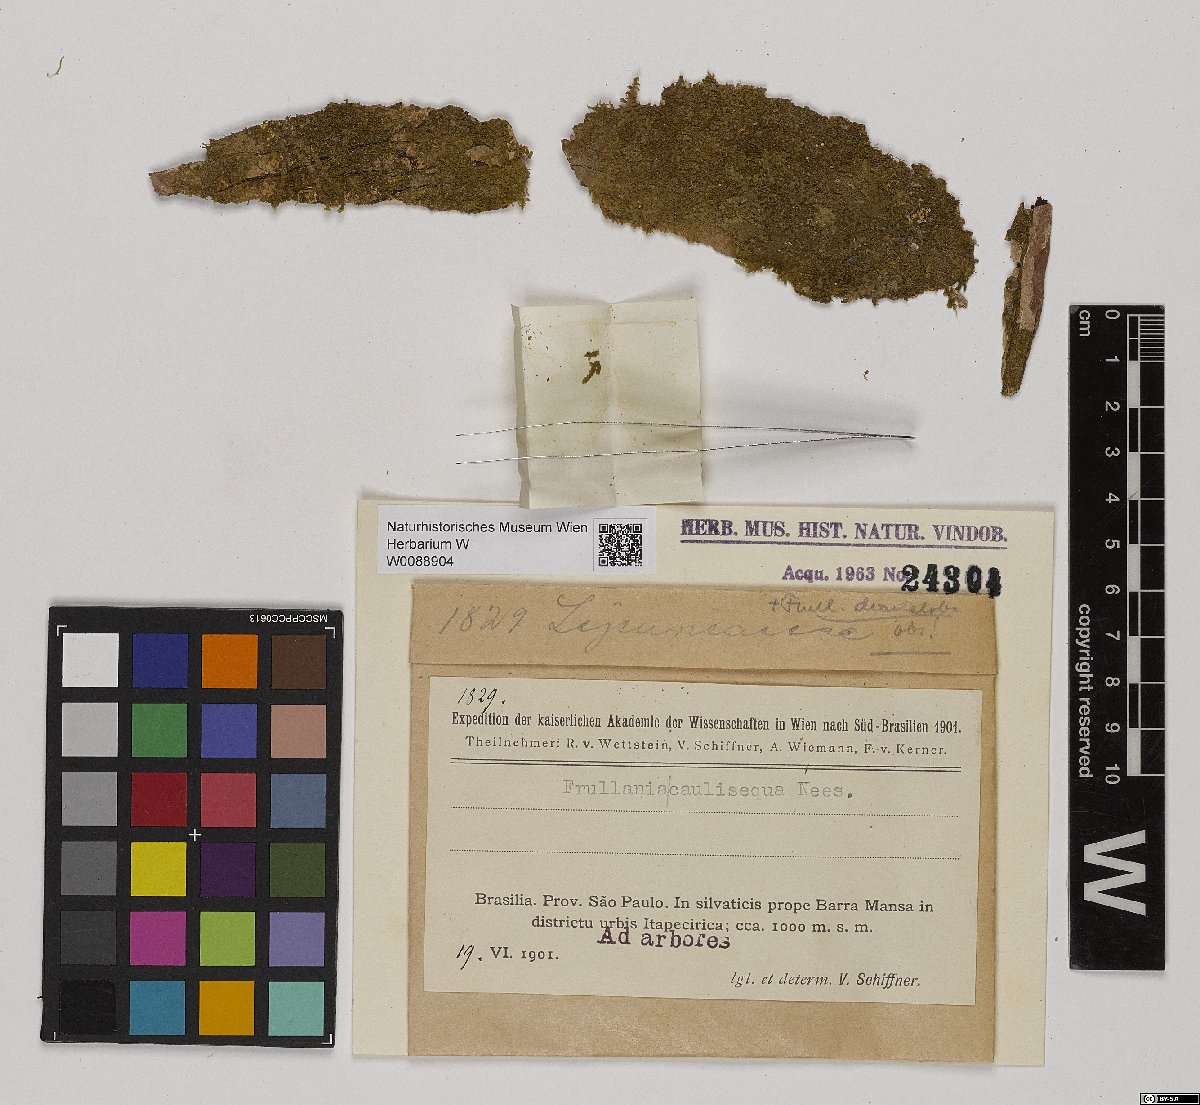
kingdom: Plantae
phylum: Marchantiophyta
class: Jungermanniopsida
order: Porellales
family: Frullaniaceae
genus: Frullania
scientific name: Frullania caulisequa
